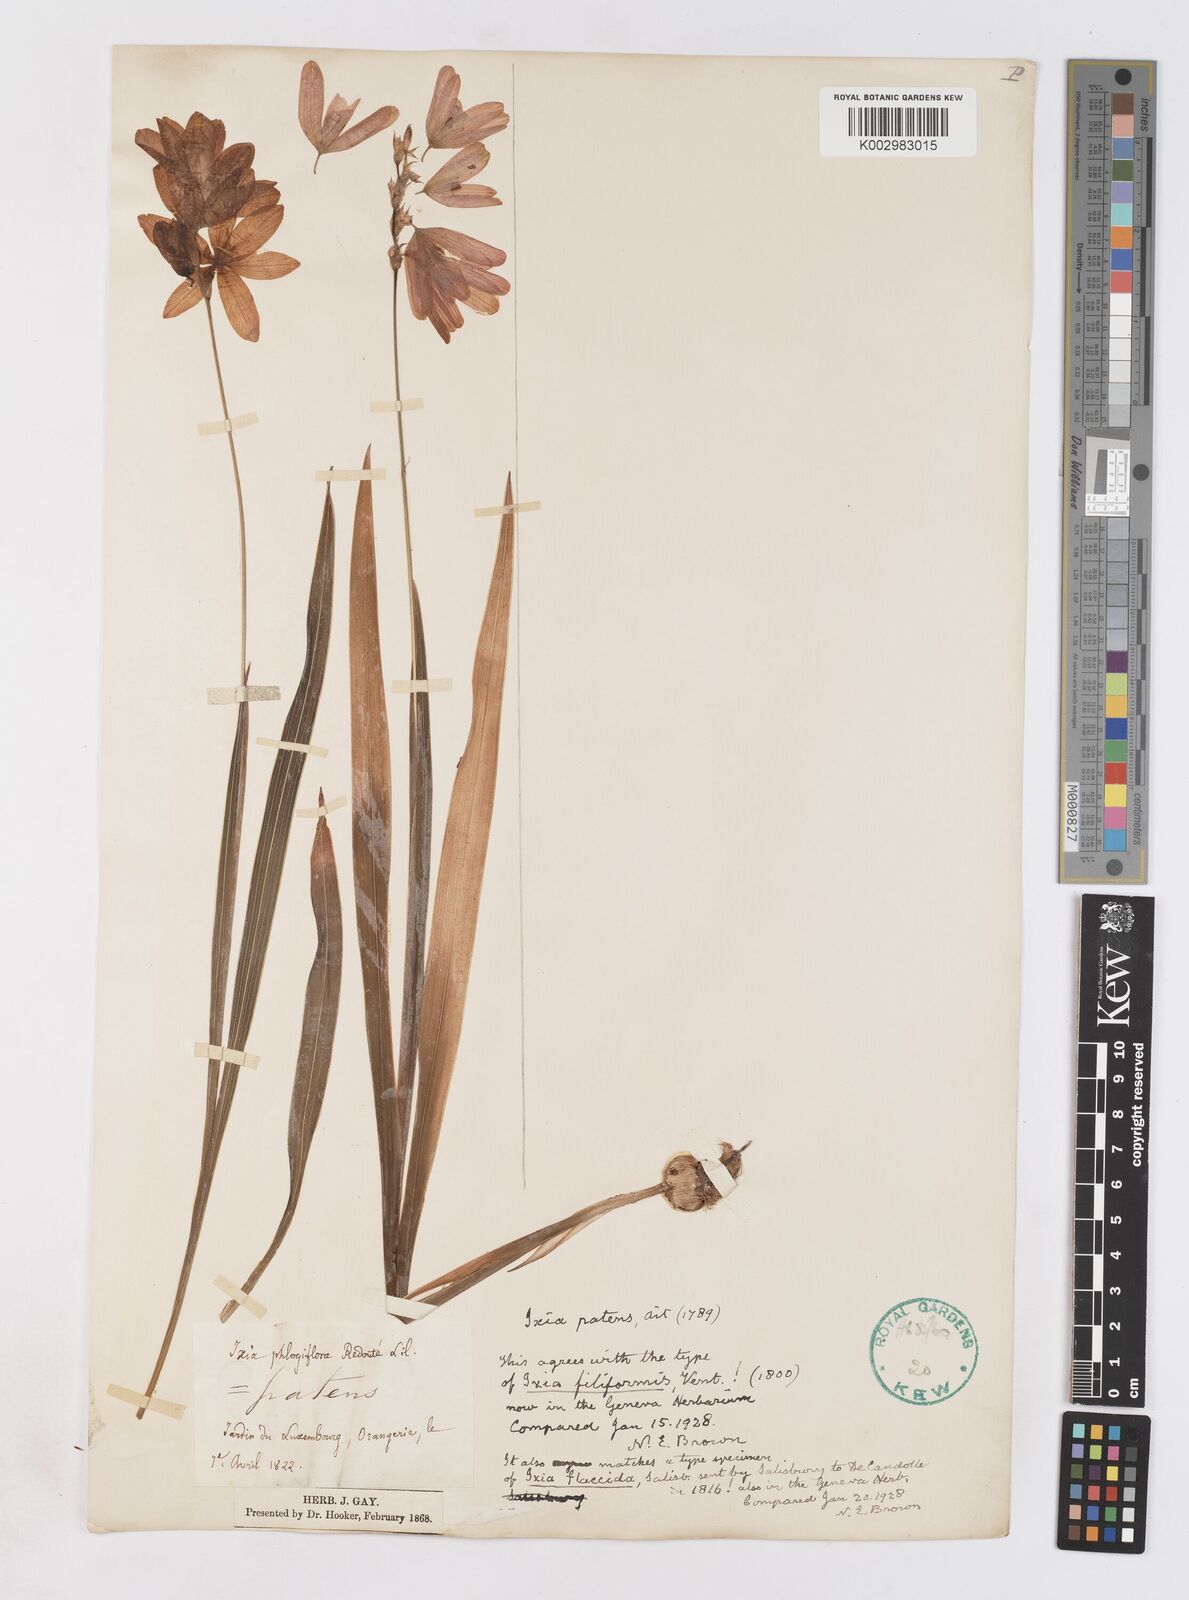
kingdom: Plantae
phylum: Tracheophyta
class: Liliopsida
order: Asparagales
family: Iridaceae
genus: Ixia
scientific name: Ixia patens
